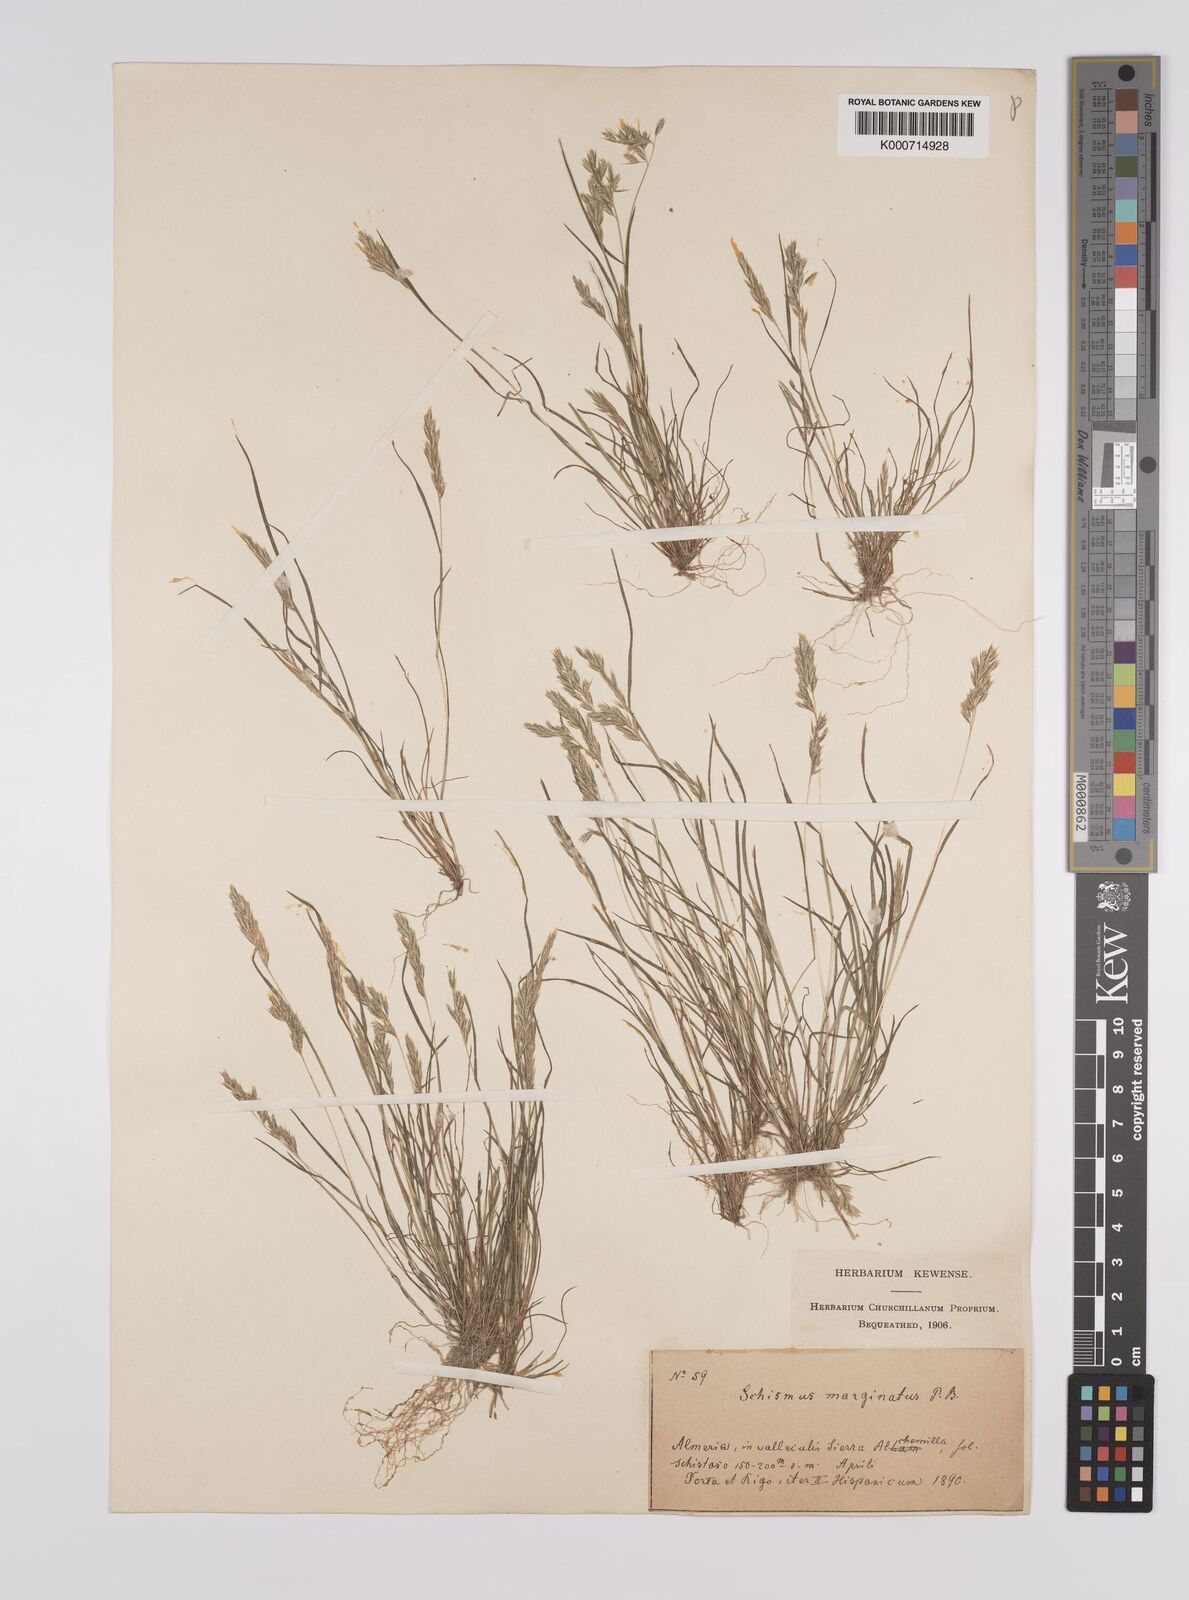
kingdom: Plantae
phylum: Tracheophyta
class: Liliopsida
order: Poales
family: Poaceae
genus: Schismus
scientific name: Schismus barbatus
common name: Kelch-grass
